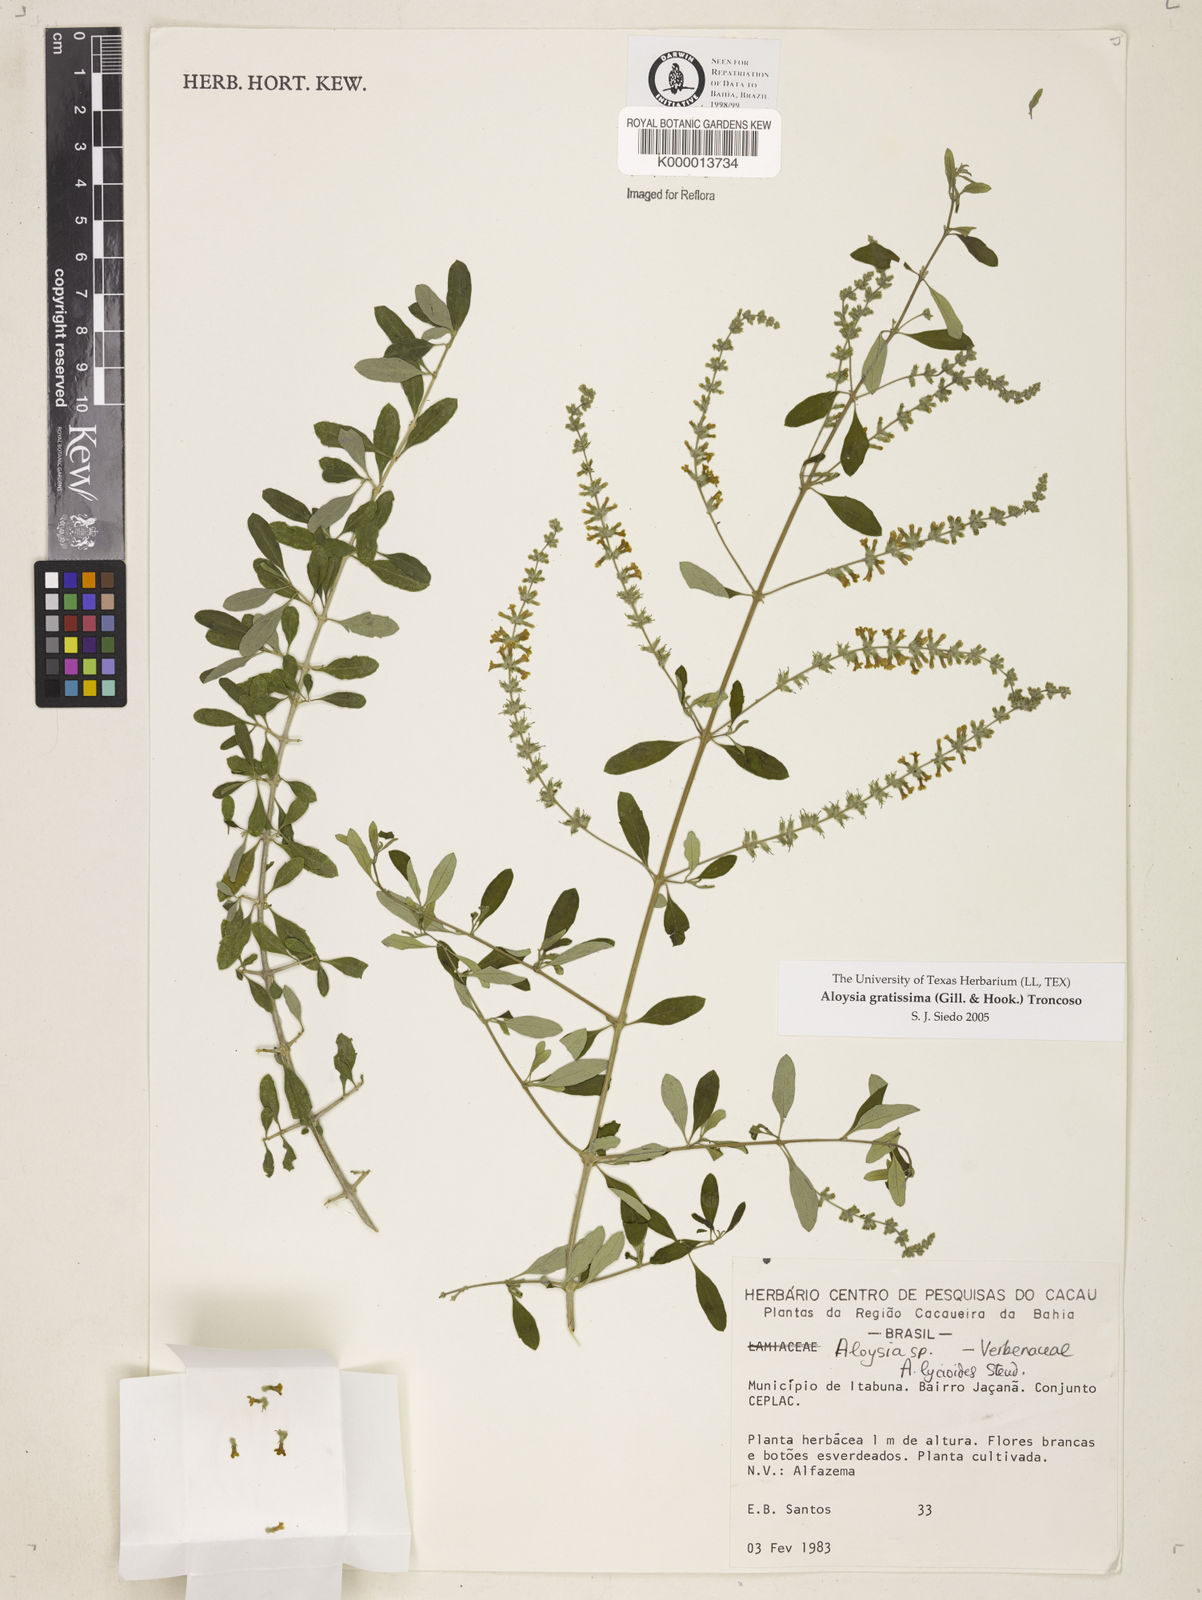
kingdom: Plantae
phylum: Tracheophyta
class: Magnoliopsida
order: Lamiales
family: Verbenaceae
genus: Aloysia
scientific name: Aloysia gratissima
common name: Common bee-brush
